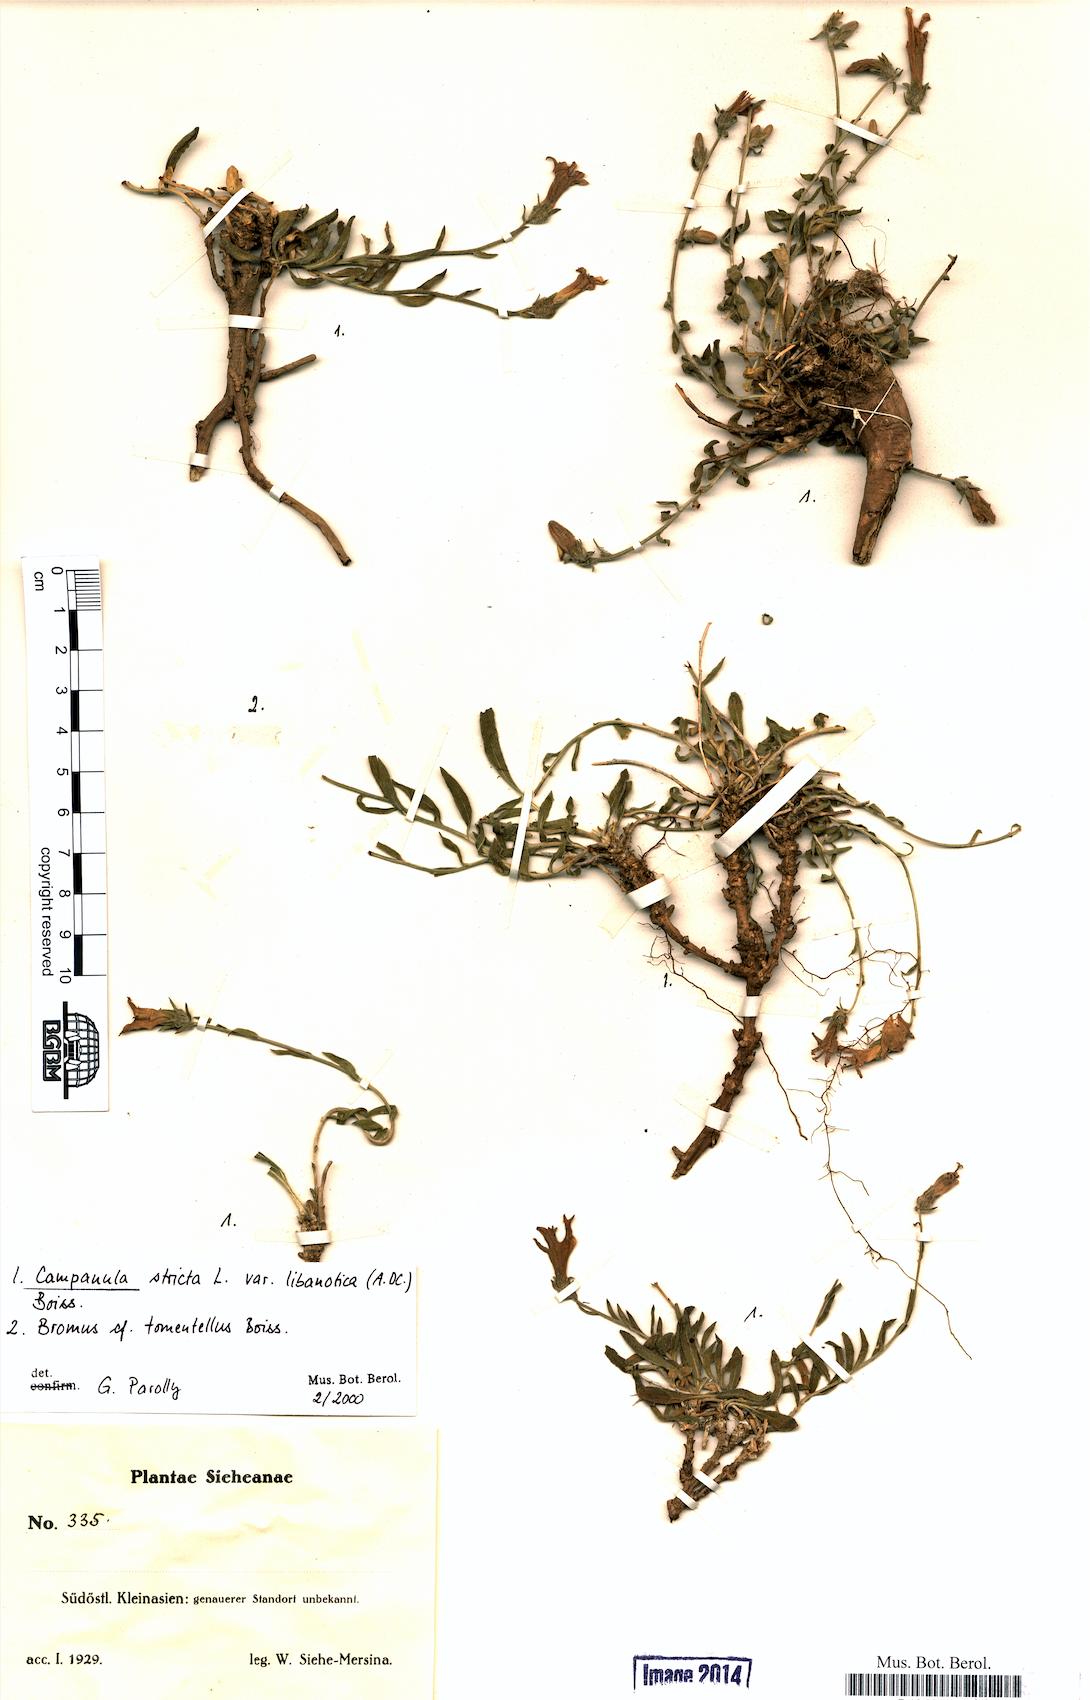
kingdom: Plantae
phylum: Tracheophyta
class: Magnoliopsida
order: Asterales
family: Campanulaceae
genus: Campanula
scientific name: Campanula stricta
